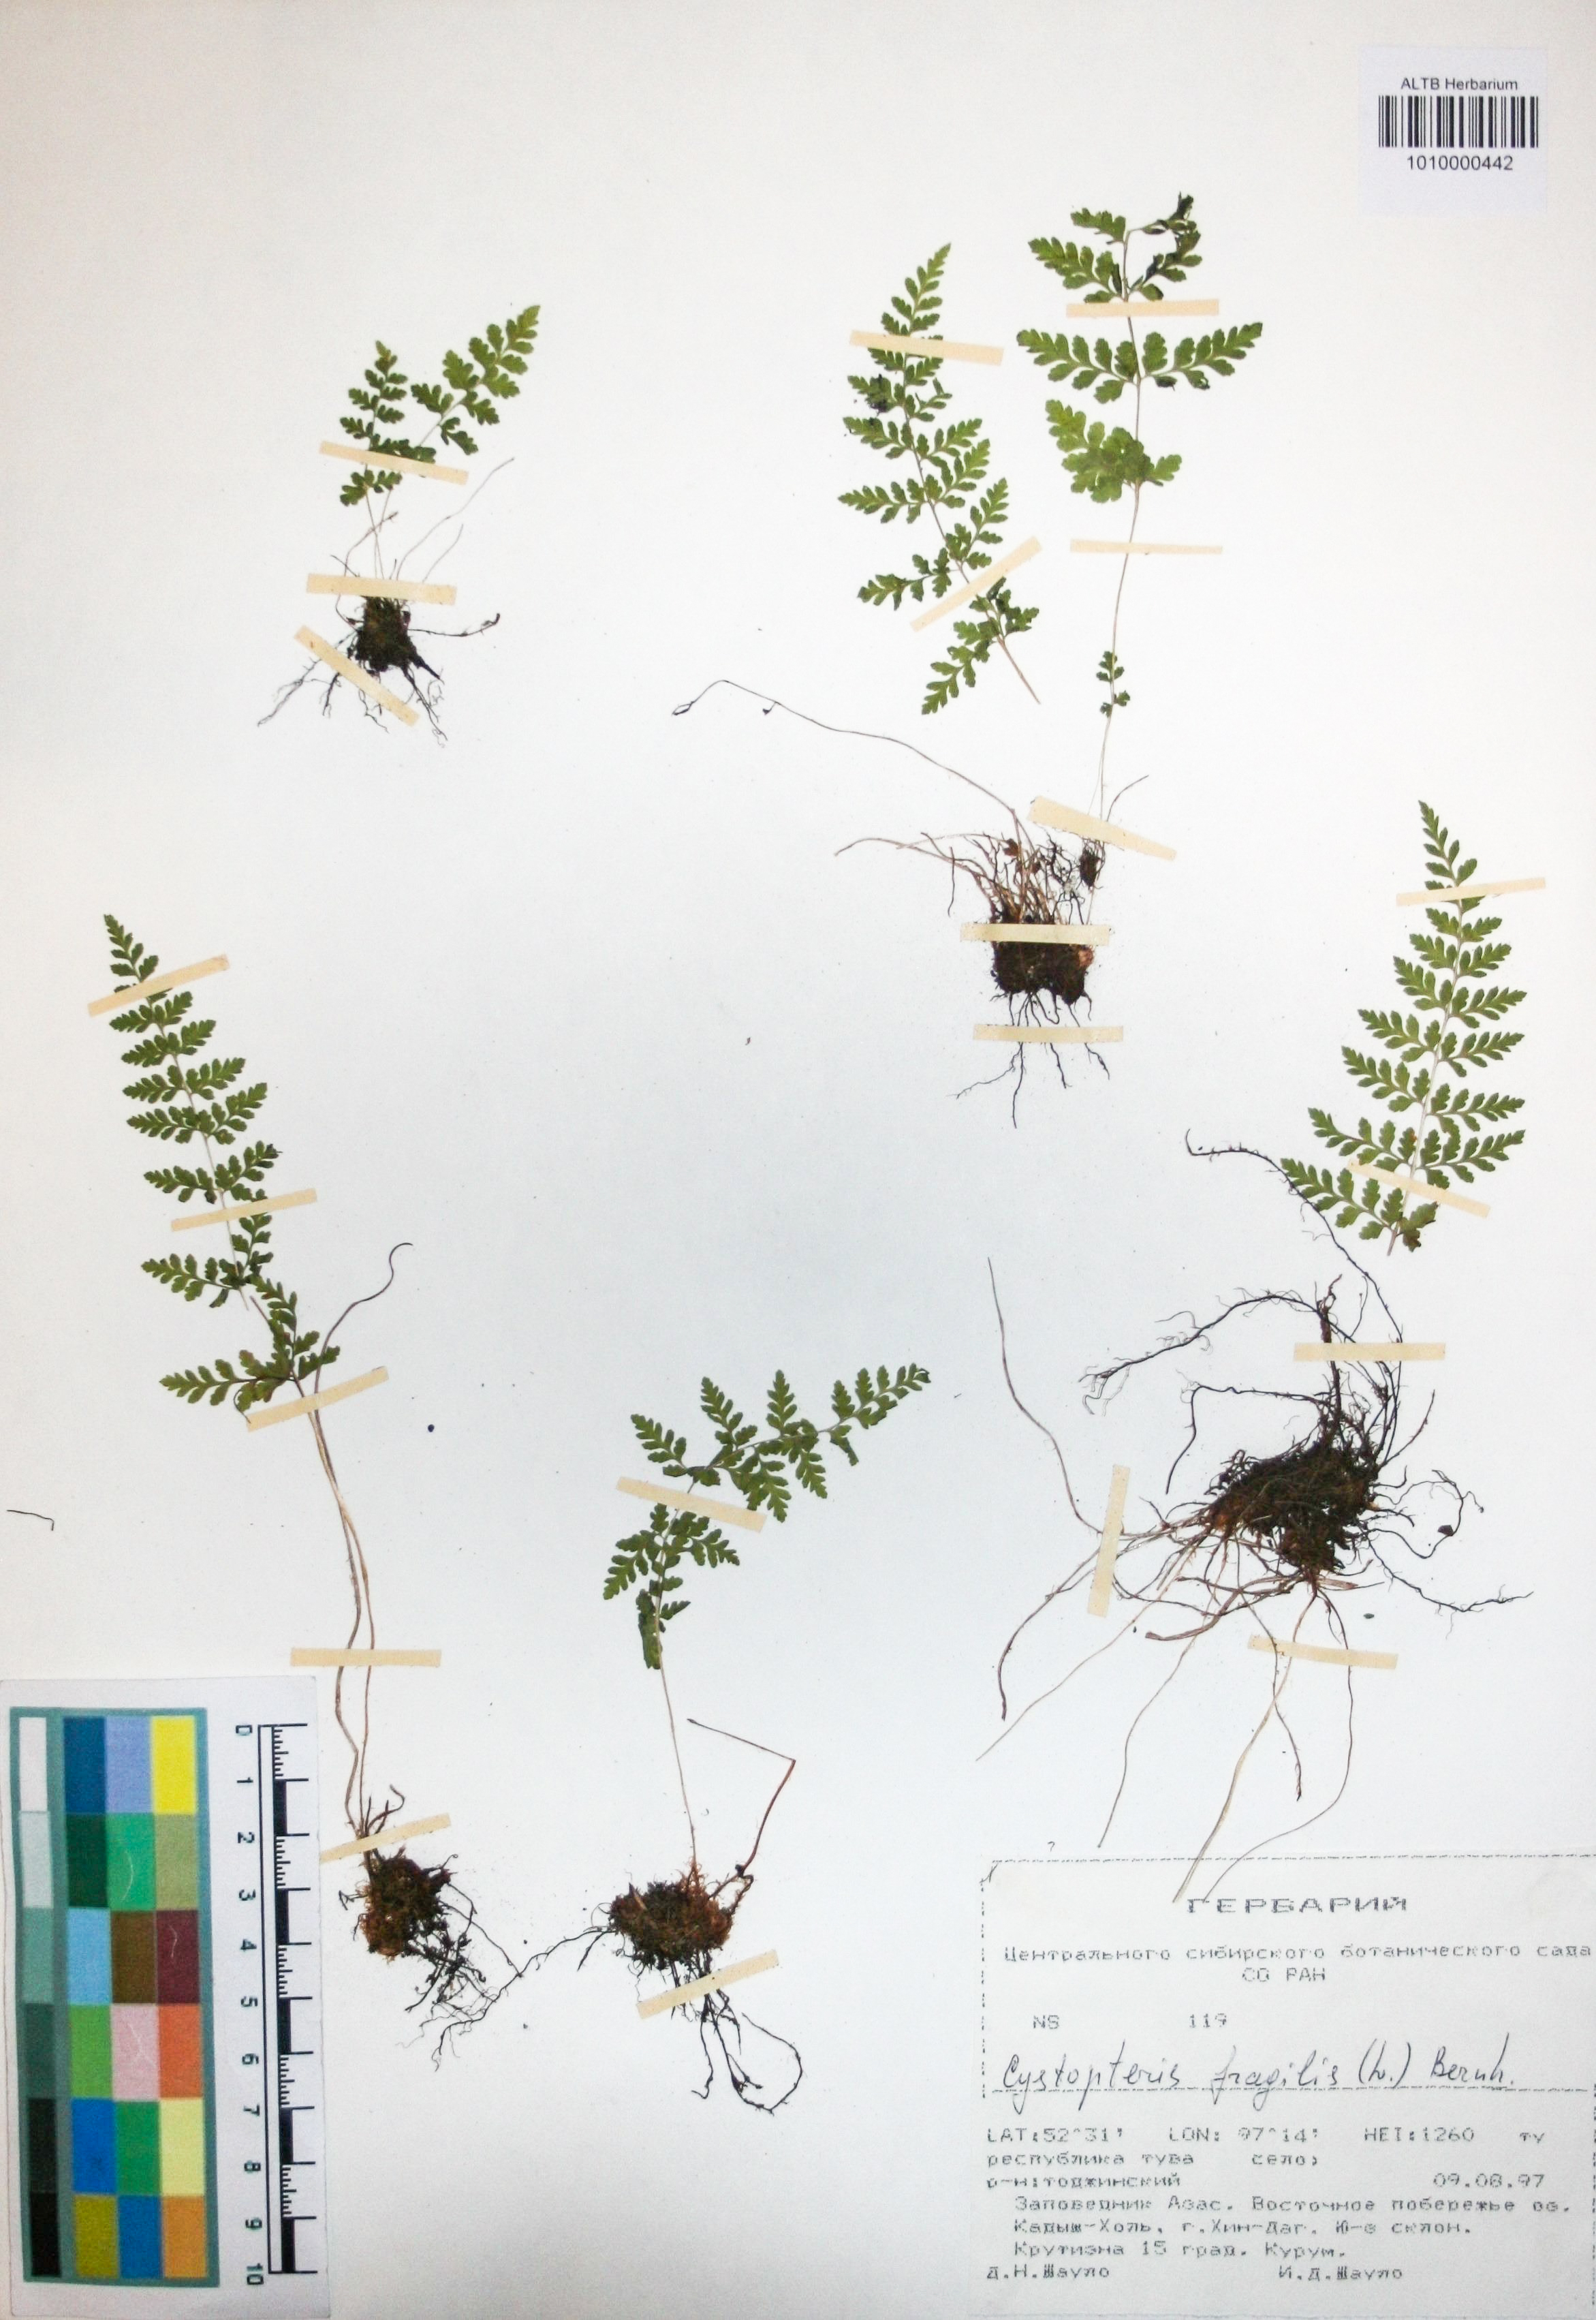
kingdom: Plantae
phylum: Tracheophyta
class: Polypodiopsida
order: Polypodiales
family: Cystopteridaceae
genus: Cystopteris
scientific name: Cystopteris fragilis
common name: Brittle bladder fern
